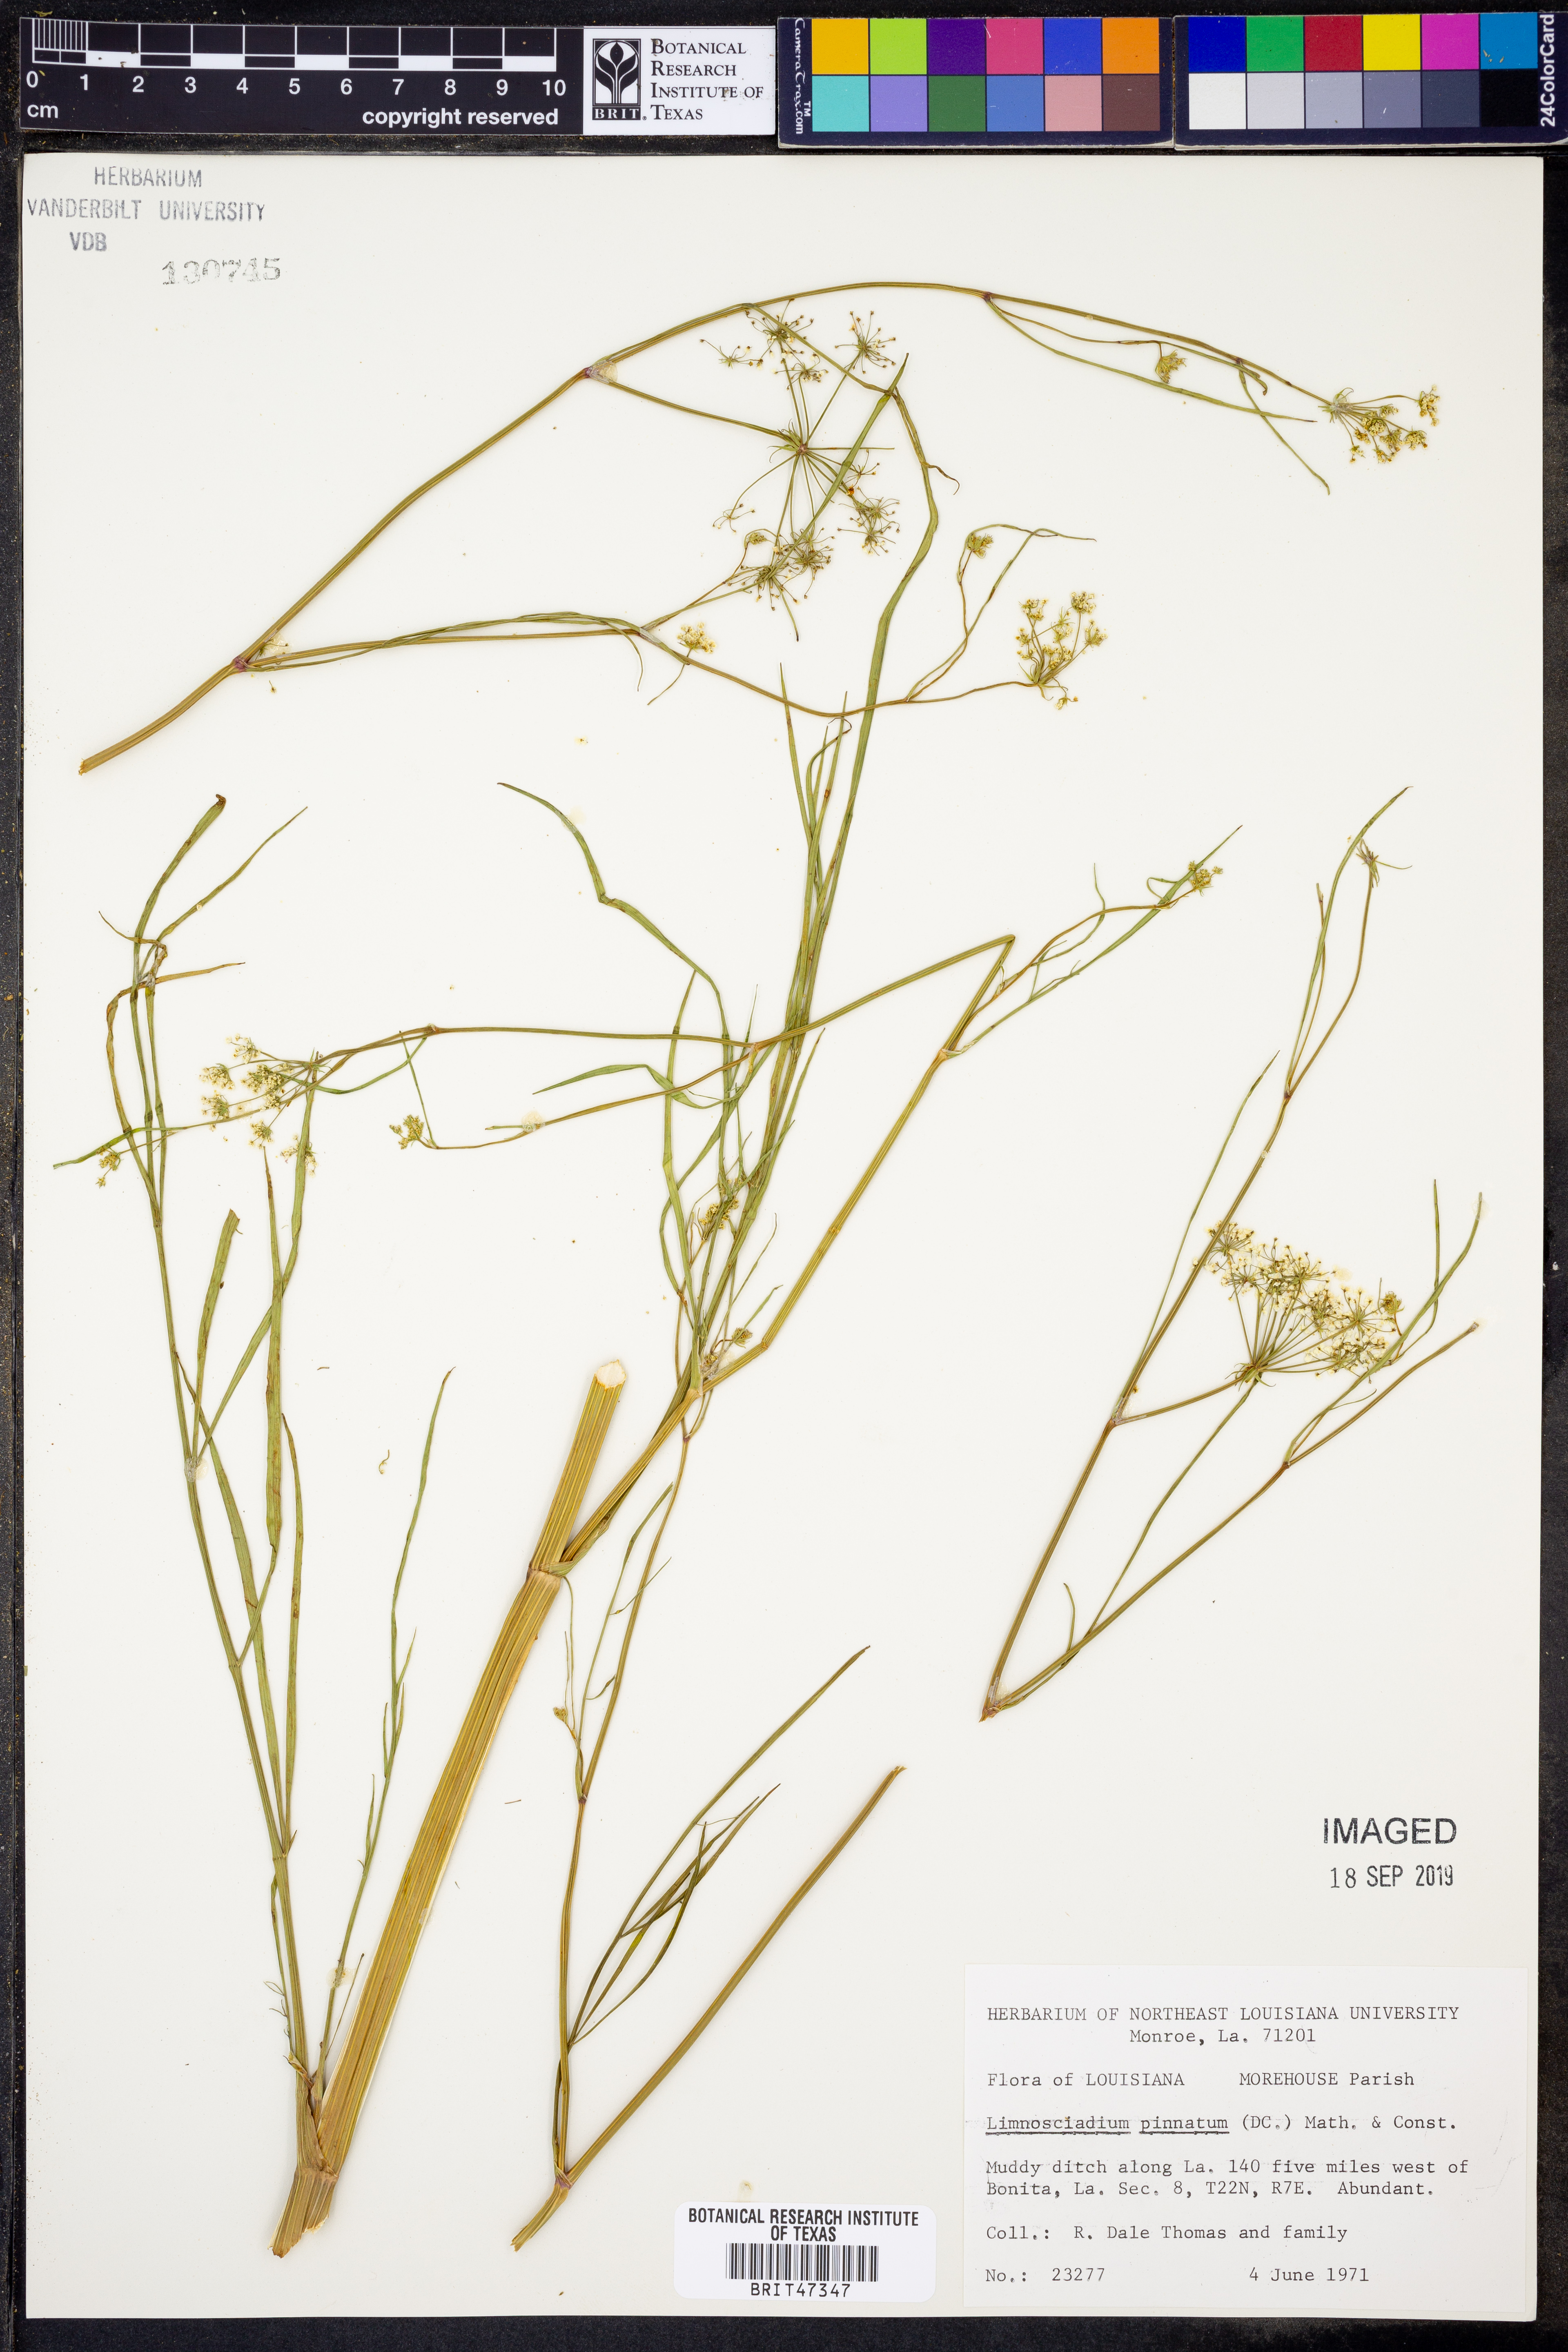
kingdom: Plantae
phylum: Tracheophyta
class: Magnoliopsida
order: Apiales
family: Apiaceae
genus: Limnosciadium
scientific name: Limnosciadium pinnatum
